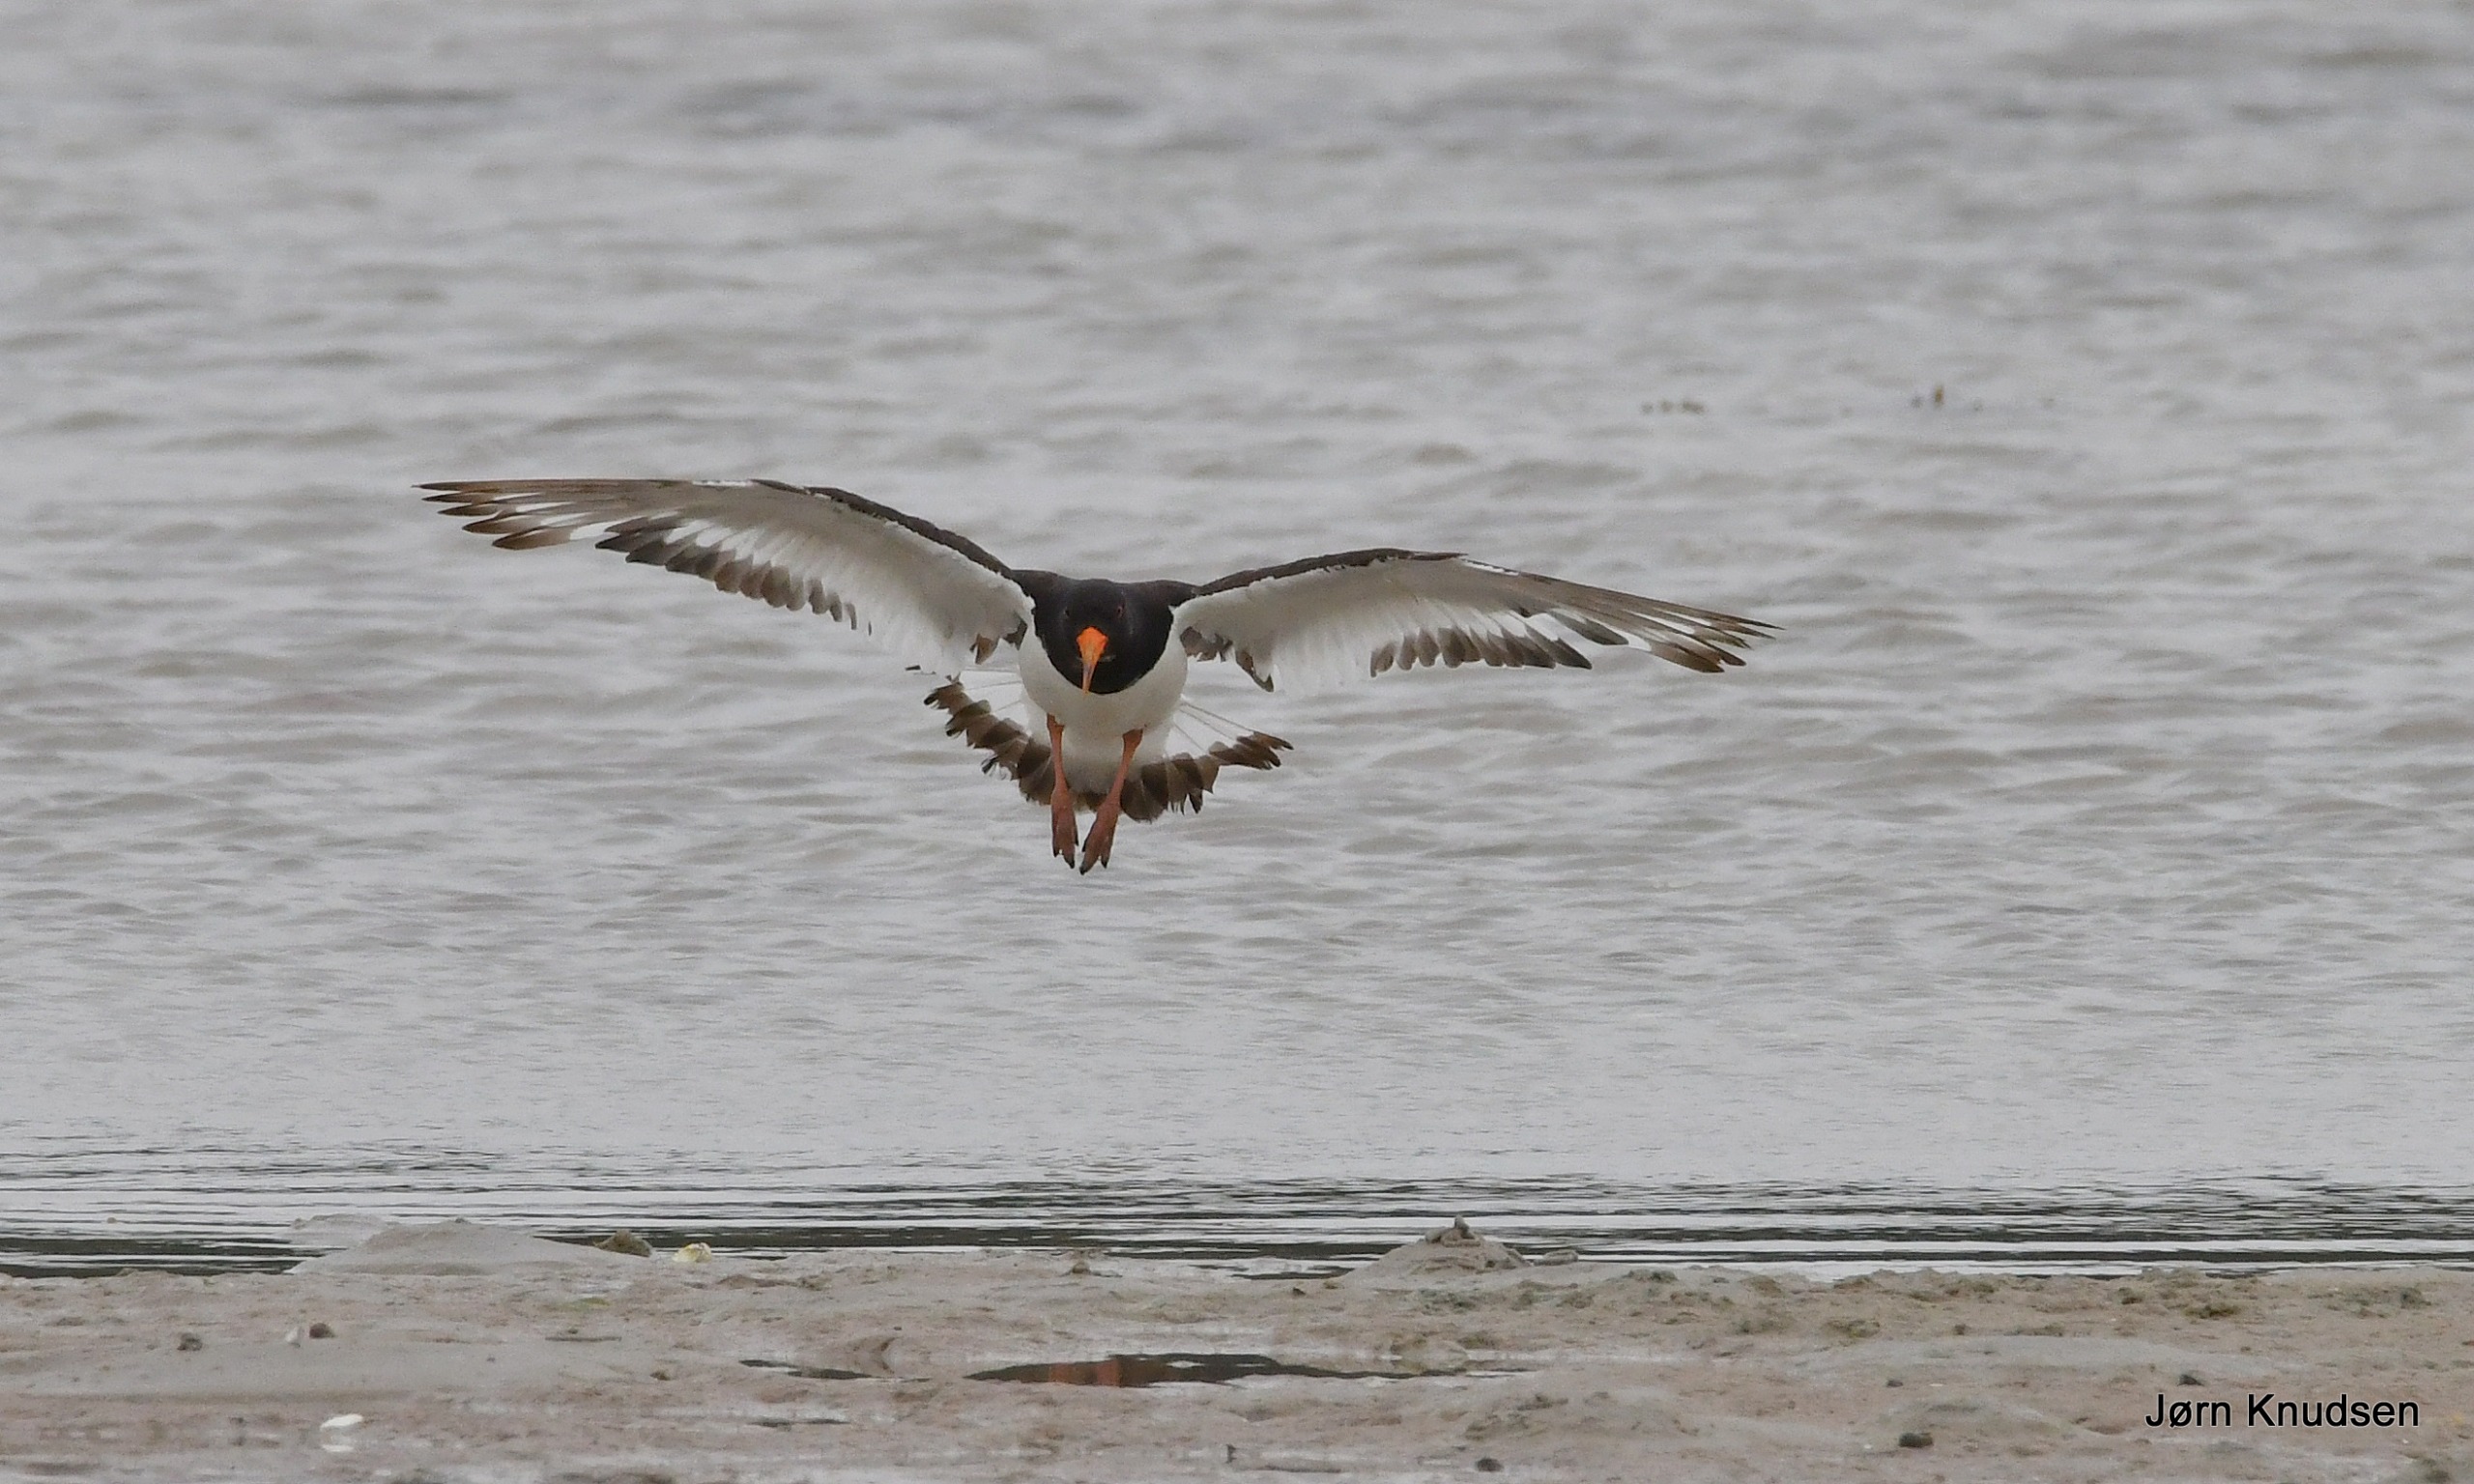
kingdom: Animalia
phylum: Chordata
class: Aves
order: Charadriiformes
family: Haematopodidae
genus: Haematopus
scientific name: Haematopus ostralegus
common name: Strandskade
